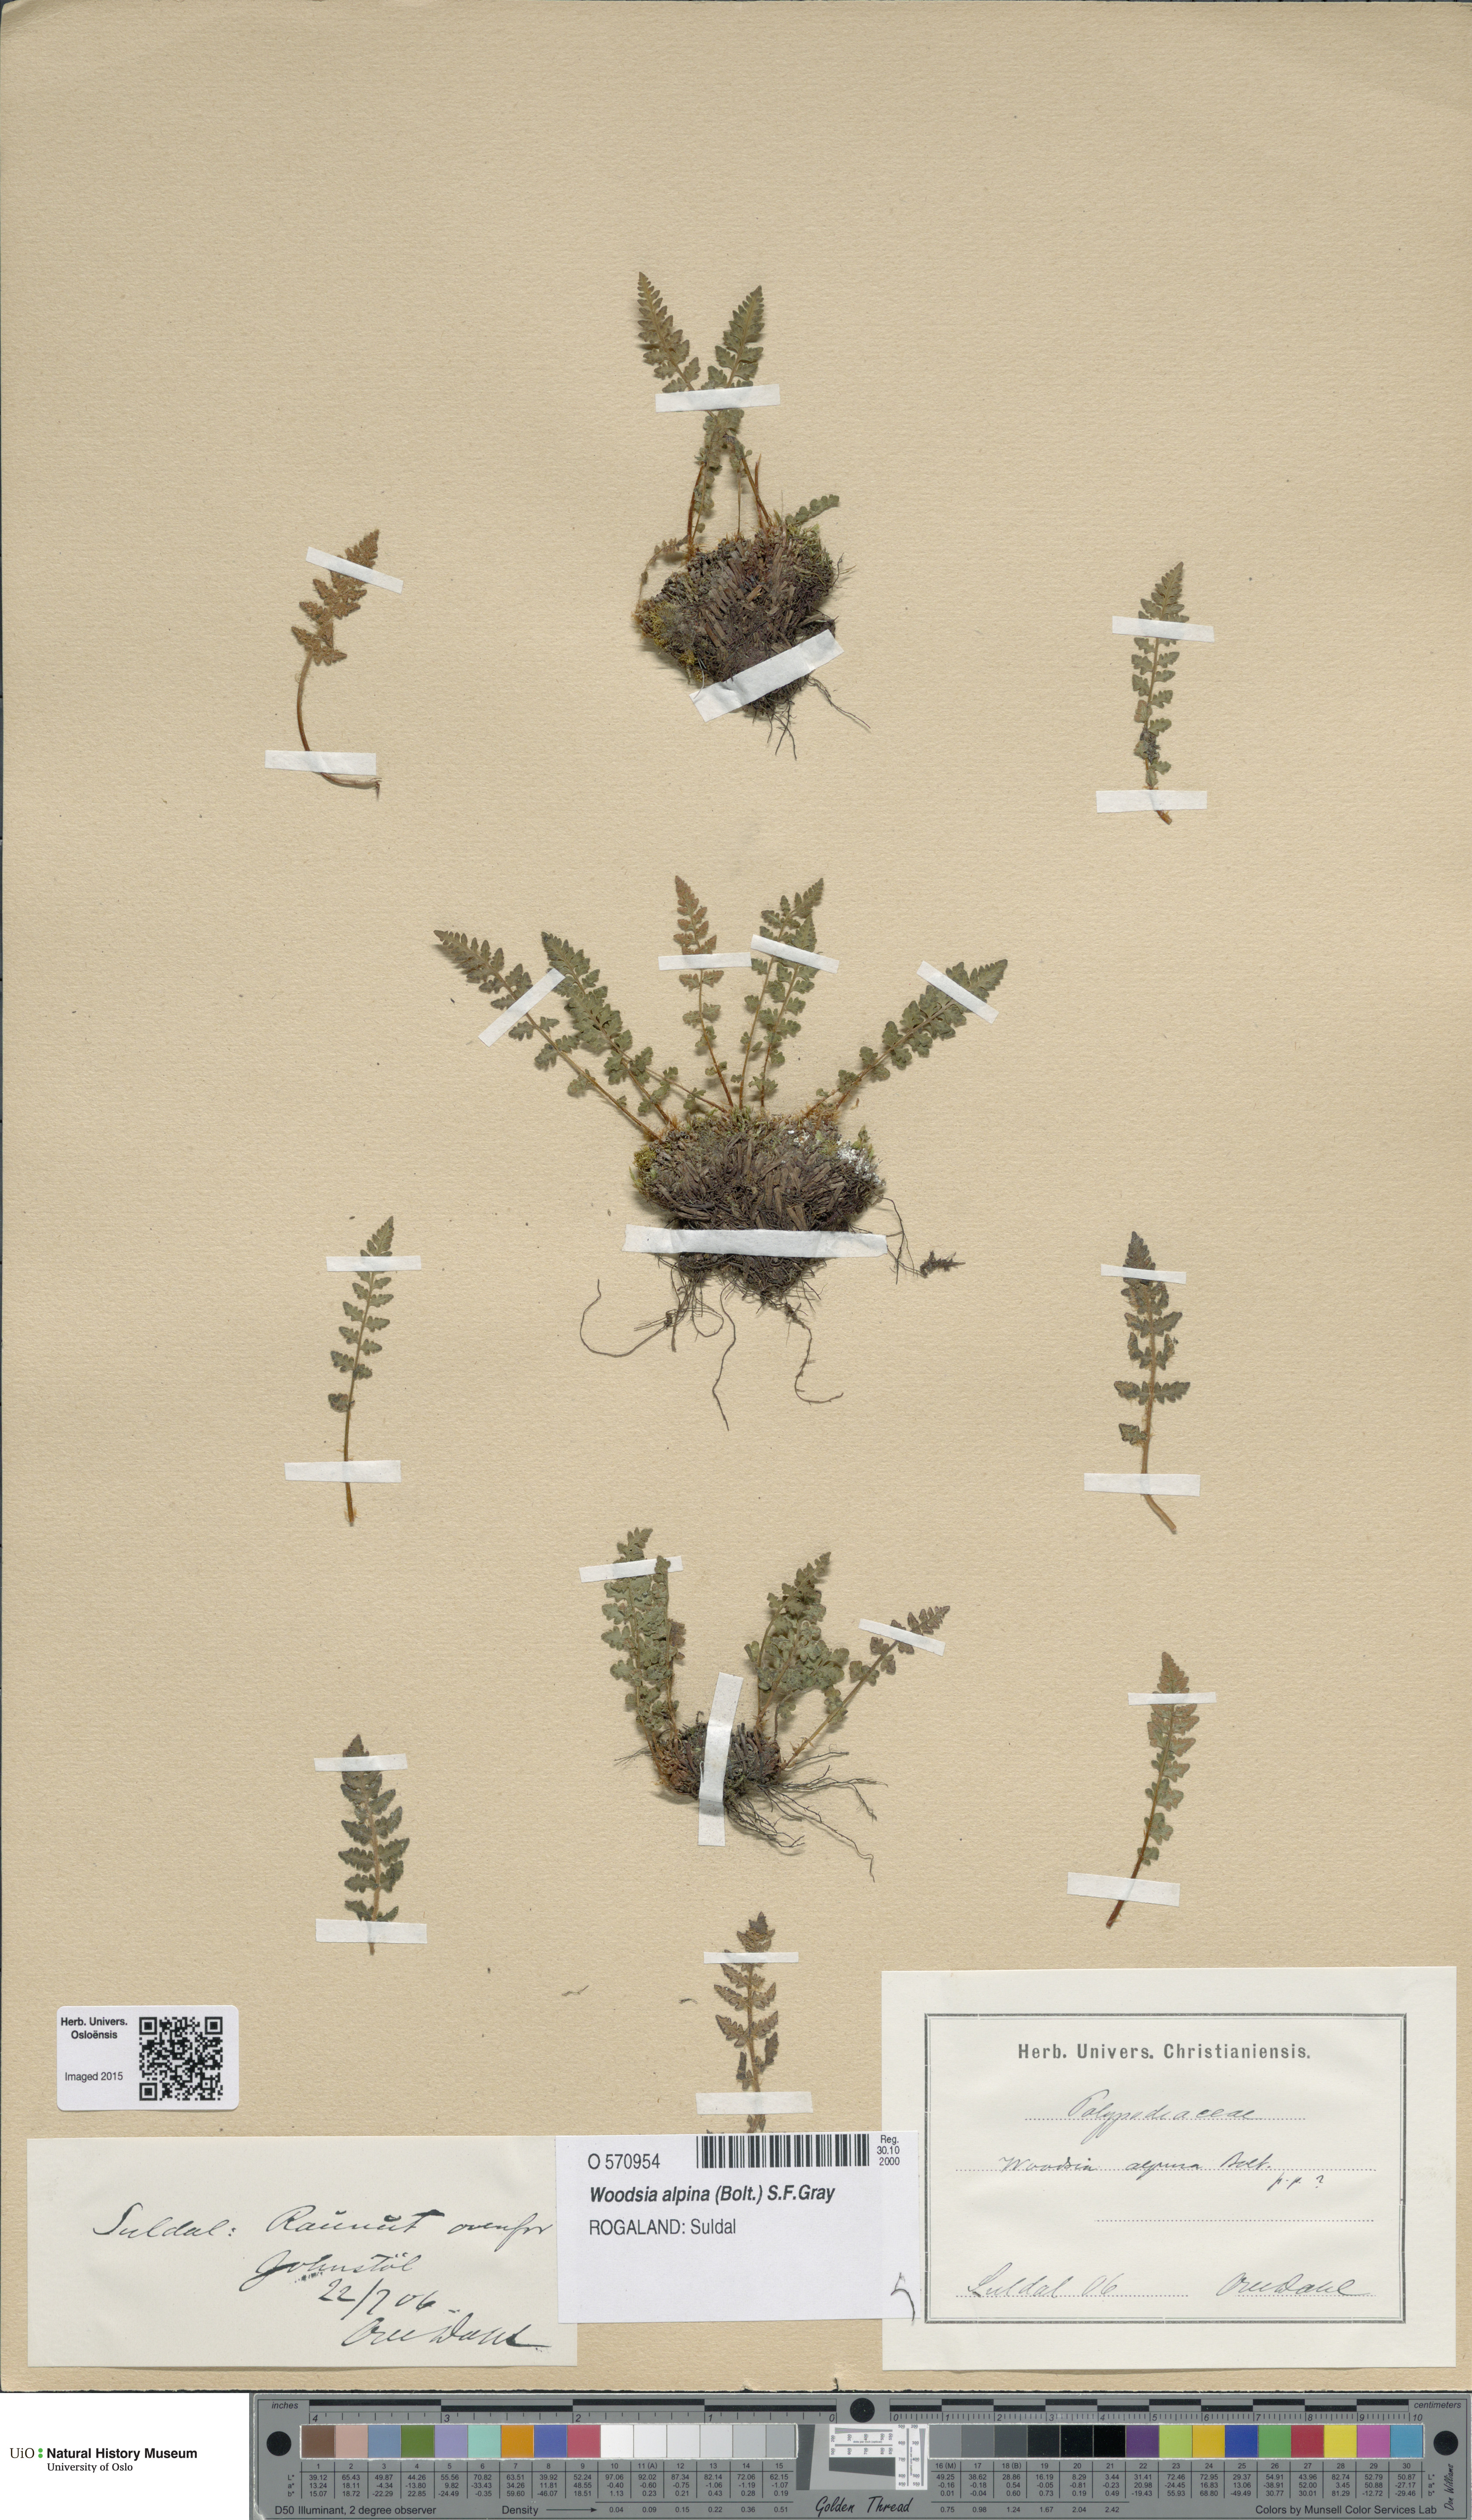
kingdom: Plantae
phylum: Tracheophyta
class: Polypodiopsida
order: Polypodiales
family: Woodsiaceae
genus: Woodsia
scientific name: Woodsia alpina
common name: Alpine woodsia
